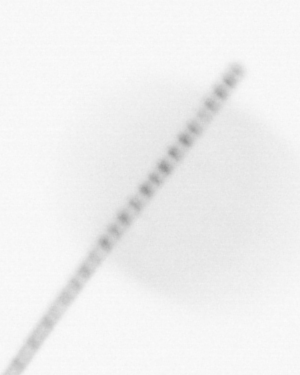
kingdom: Chromista
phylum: Ochrophyta
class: Bacillariophyceae
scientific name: Bacillariophyceae
